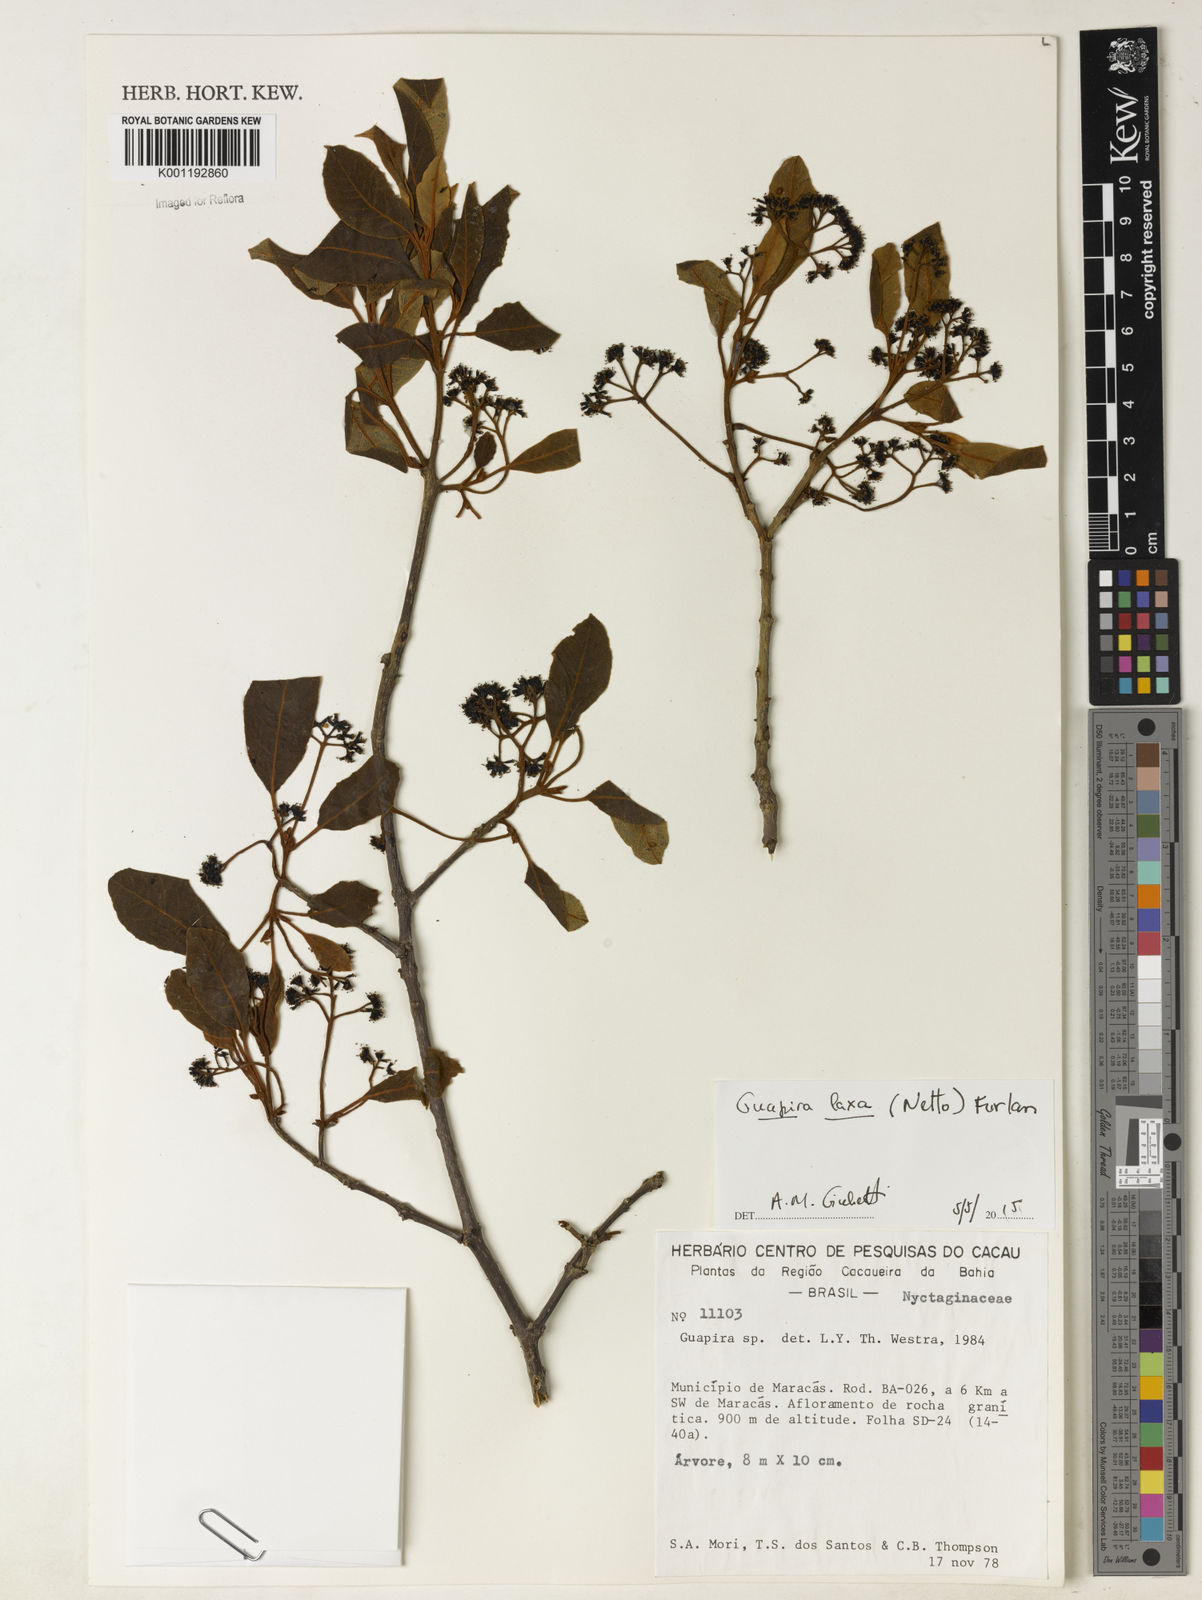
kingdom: Plantae
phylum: Tracheophyta
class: Magnoliopsida
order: Caryophyllales
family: Nyctaginaceae
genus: Guapira
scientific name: Guapira laxa
